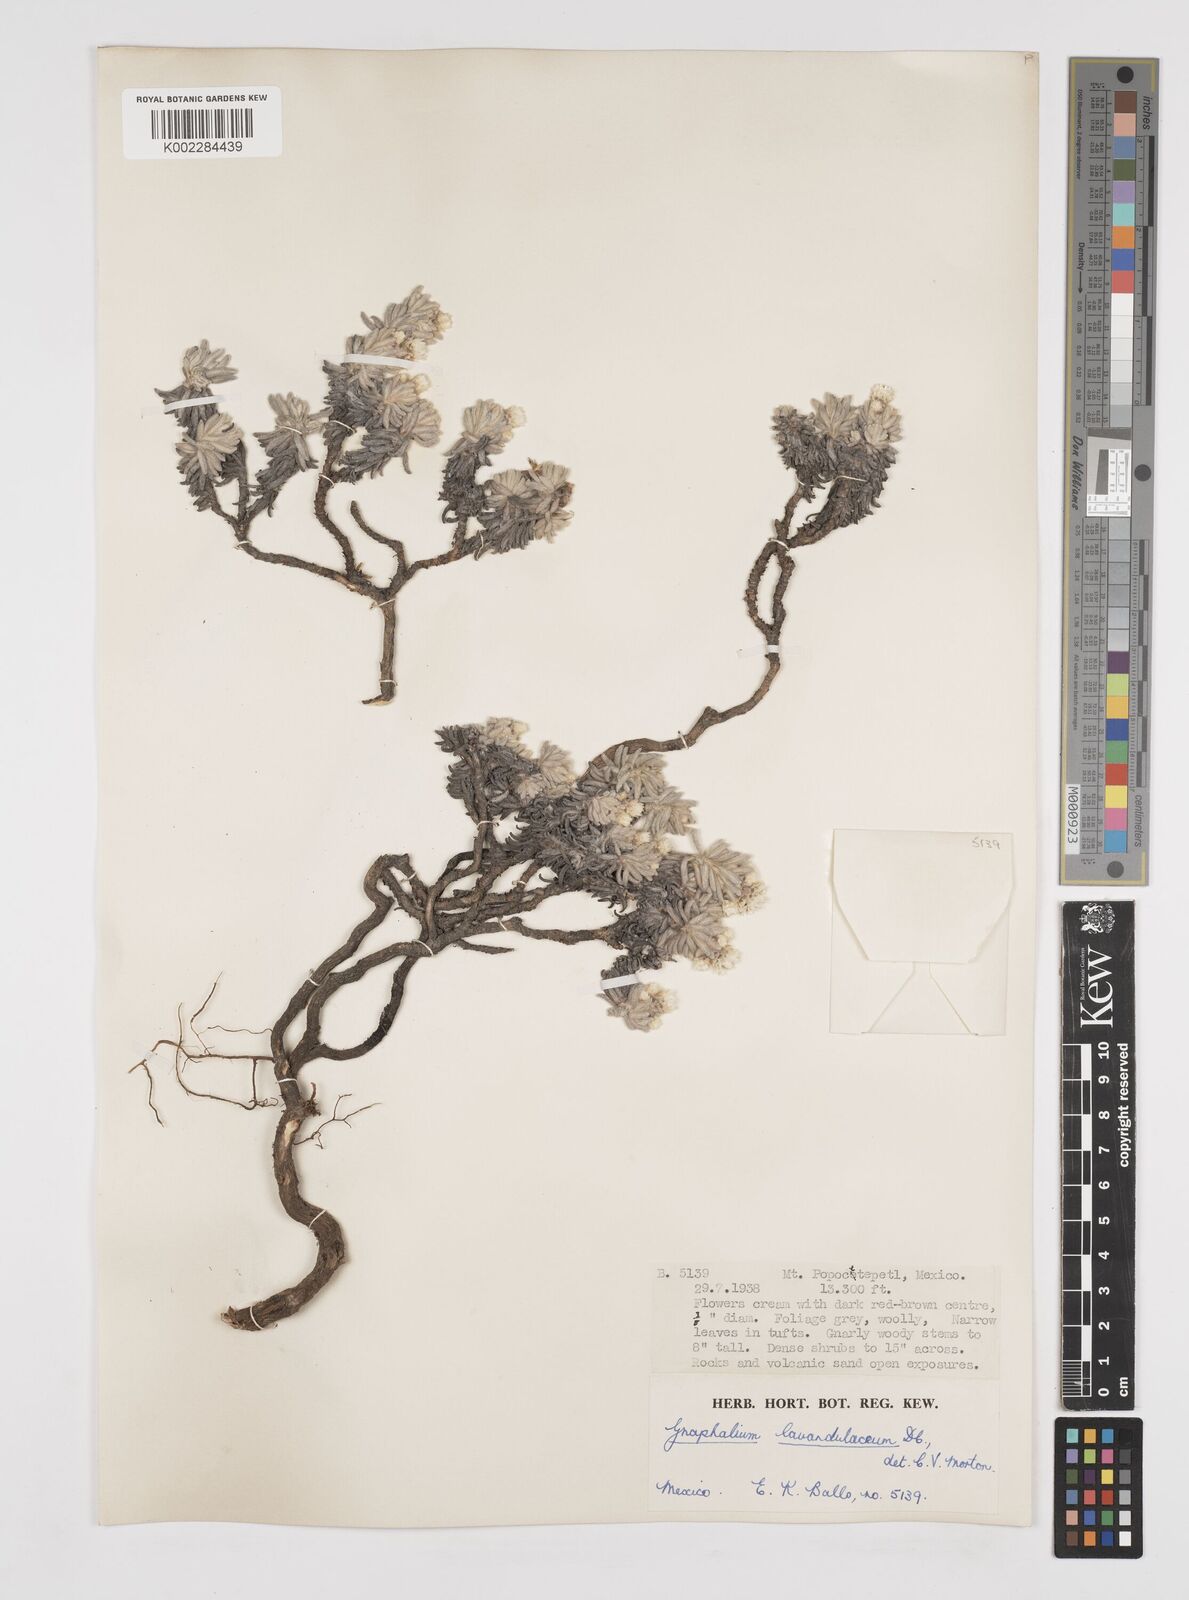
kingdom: Plantae
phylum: Tracheophyta
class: Magnoliopsida
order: Asterales
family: Asteraceae
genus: Gnaphaliothamnus
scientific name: Gnaphaliothamnus lavandulifolius
